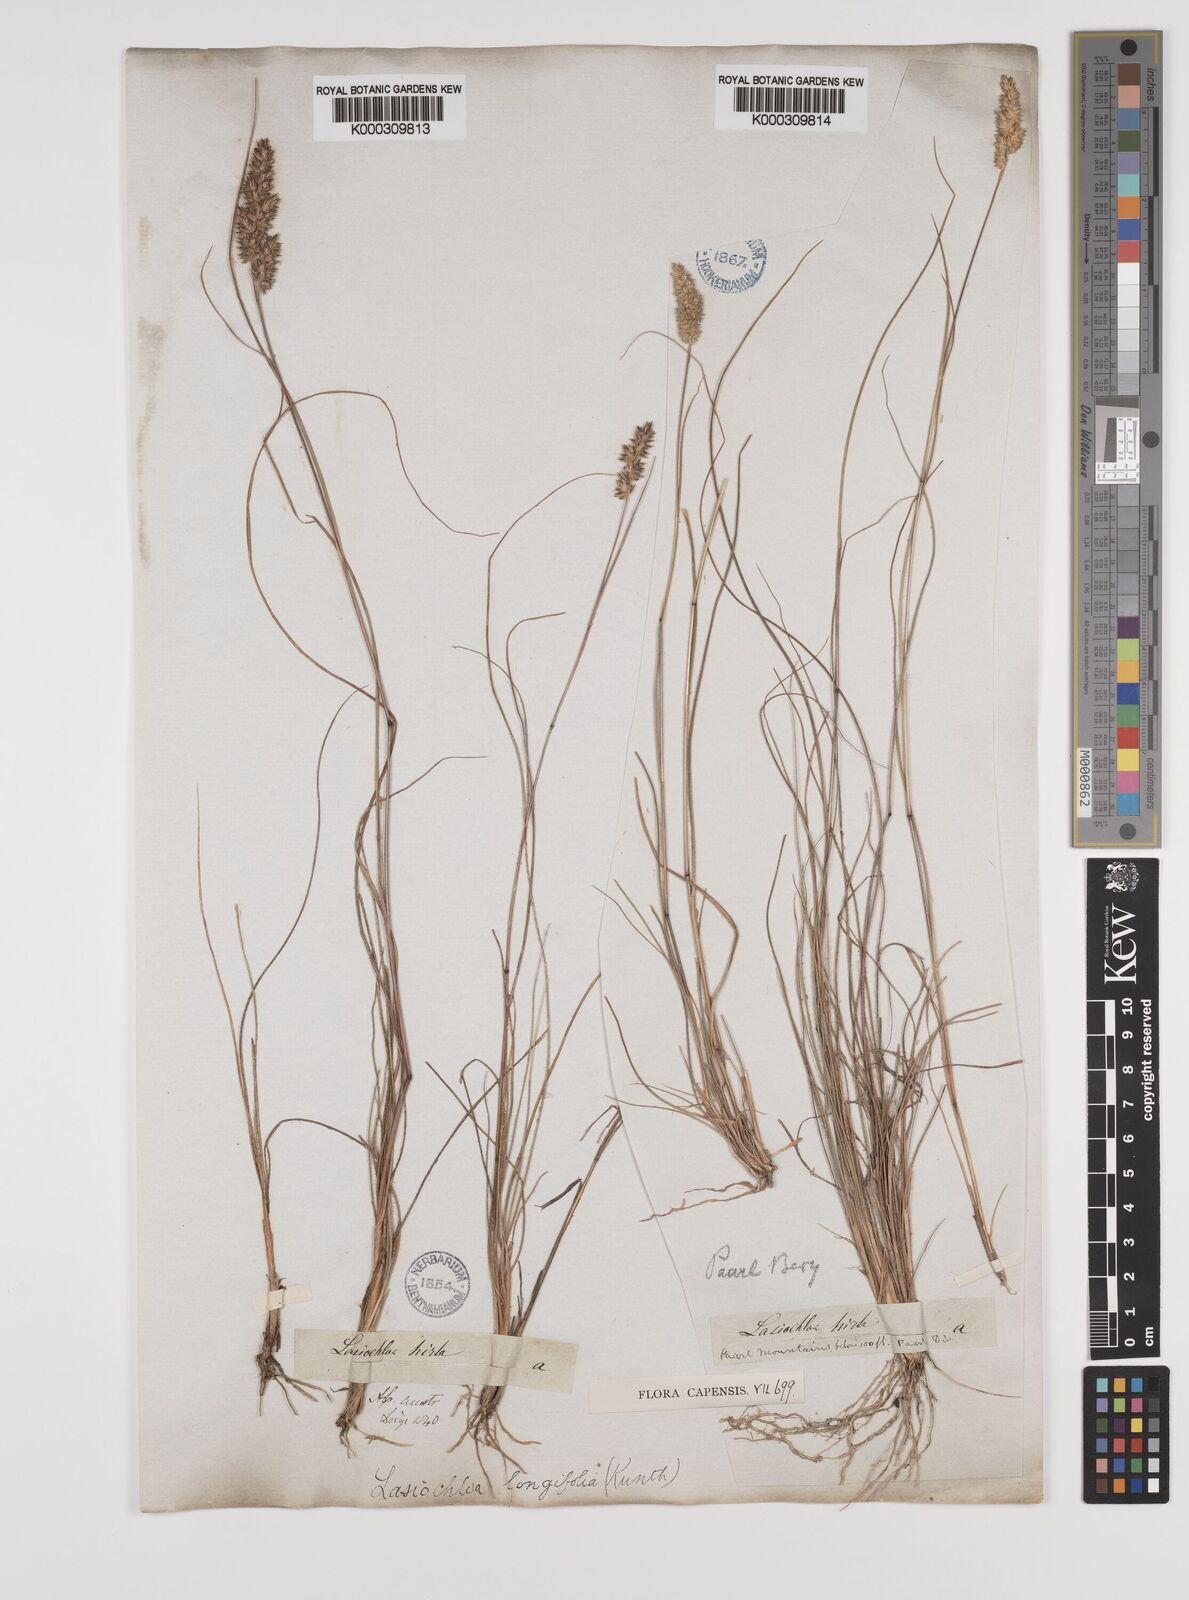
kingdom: Plantae
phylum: Tracheophyta
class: Liliopsida
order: Poales
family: Poaceae
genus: Tribolium
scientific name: Tribolium hispidum
